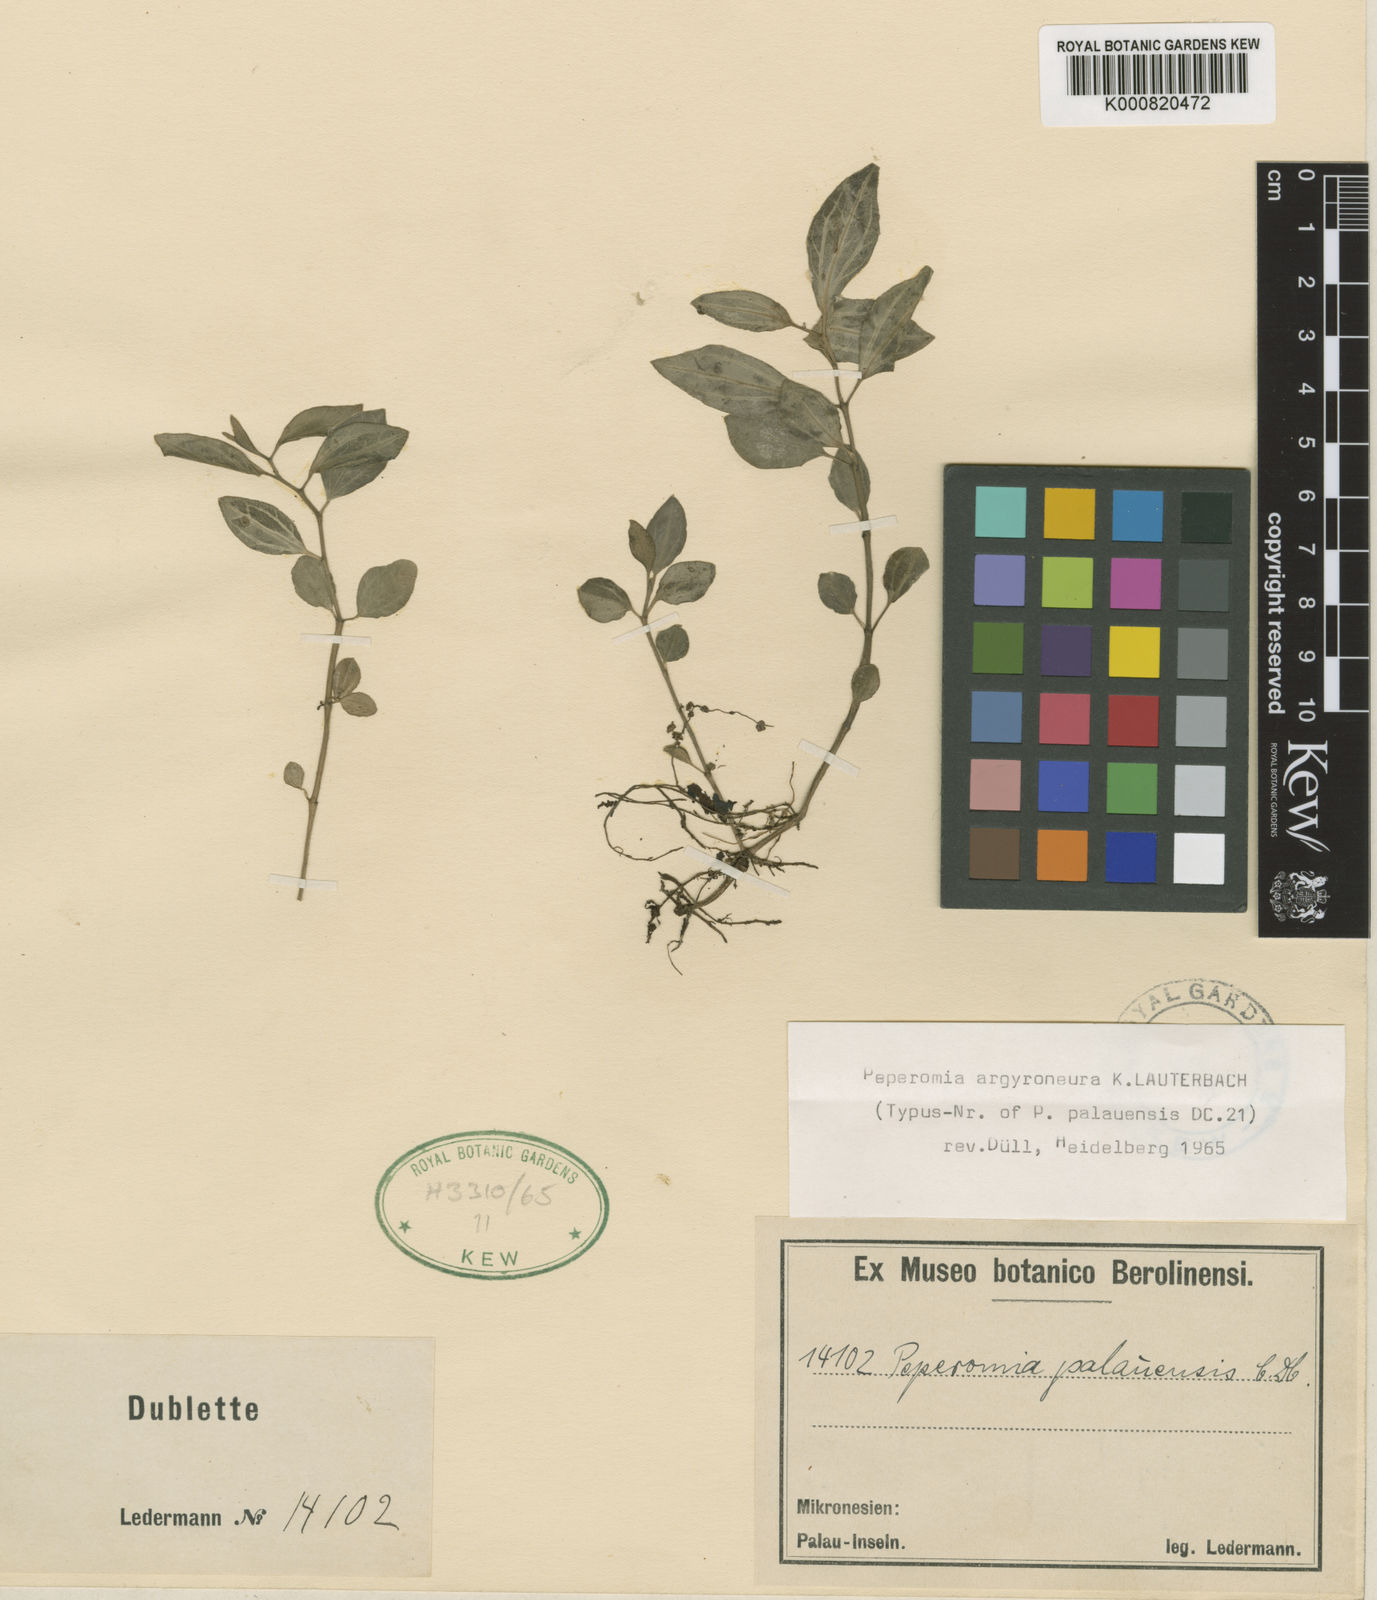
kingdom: Plantae
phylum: Tracheophyta
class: Magnoliopsida
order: Piperales
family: Piperaceae
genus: Peperomia
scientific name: Peperomia argyroneura
